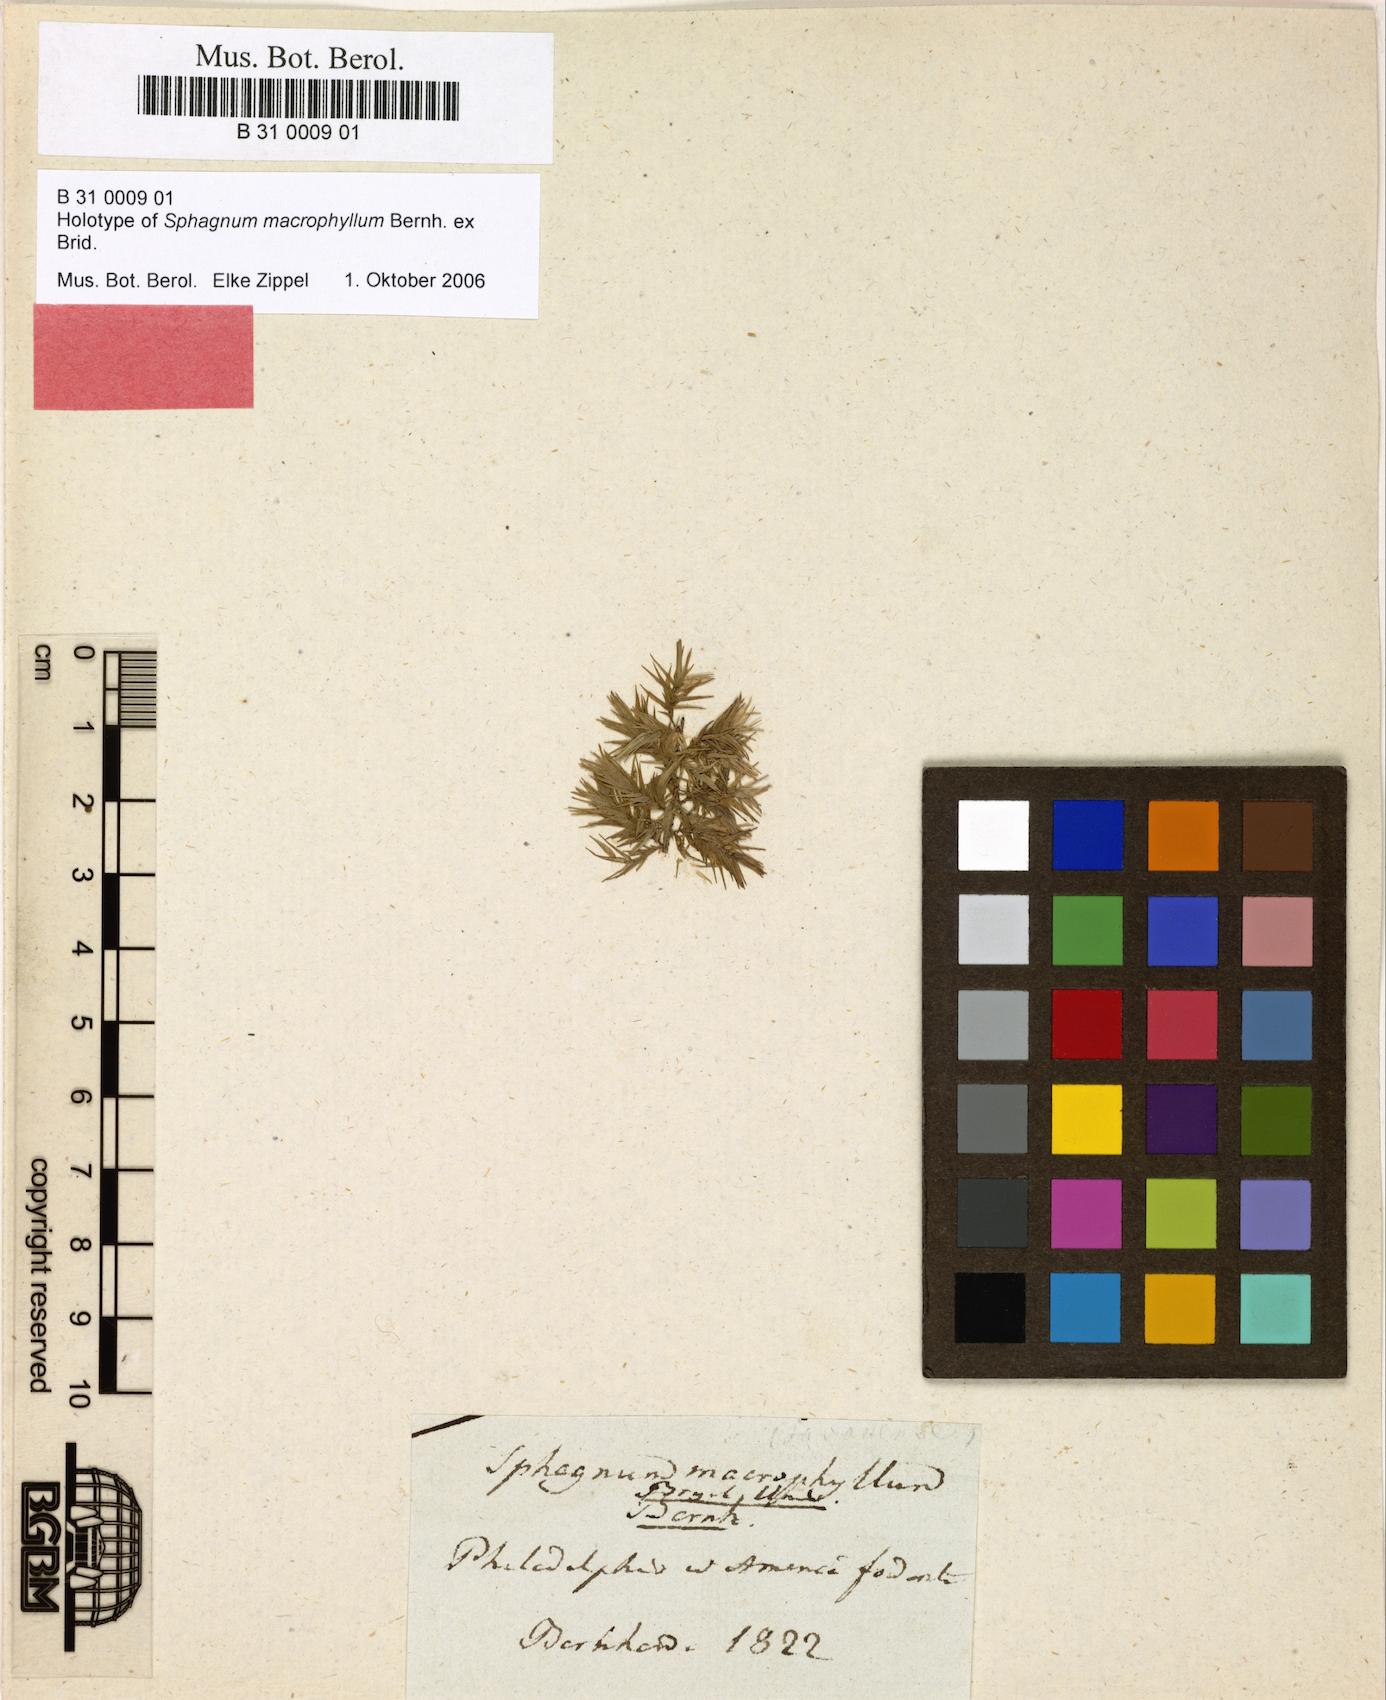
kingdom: Plantae
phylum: Bryophyta
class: Sphagnopsida
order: Sphagnales
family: Sphagnaceae
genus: Sphagnum
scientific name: Sphagnum macrophyllum
